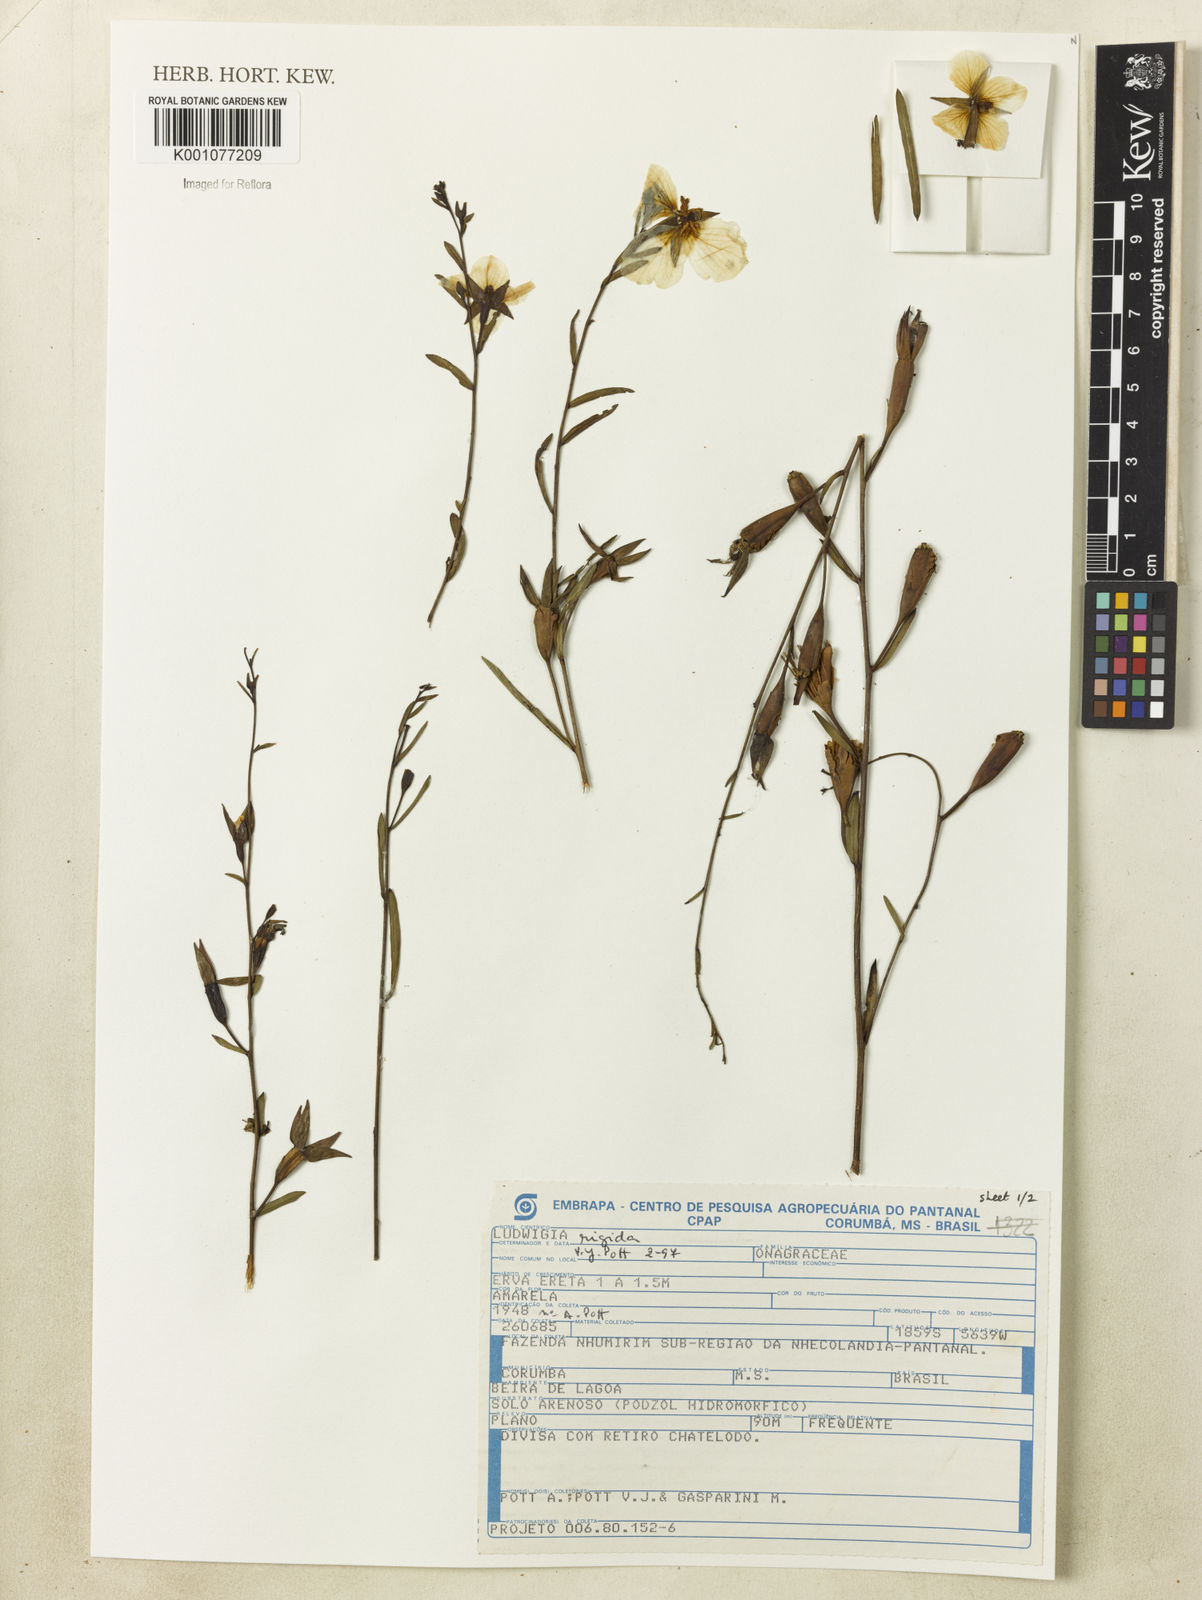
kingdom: Plantae
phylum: Tracheophyta
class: Magnoliopsida
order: Myrtales
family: Onagraceae
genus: Ludwigia
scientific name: Ludwigia rigida
